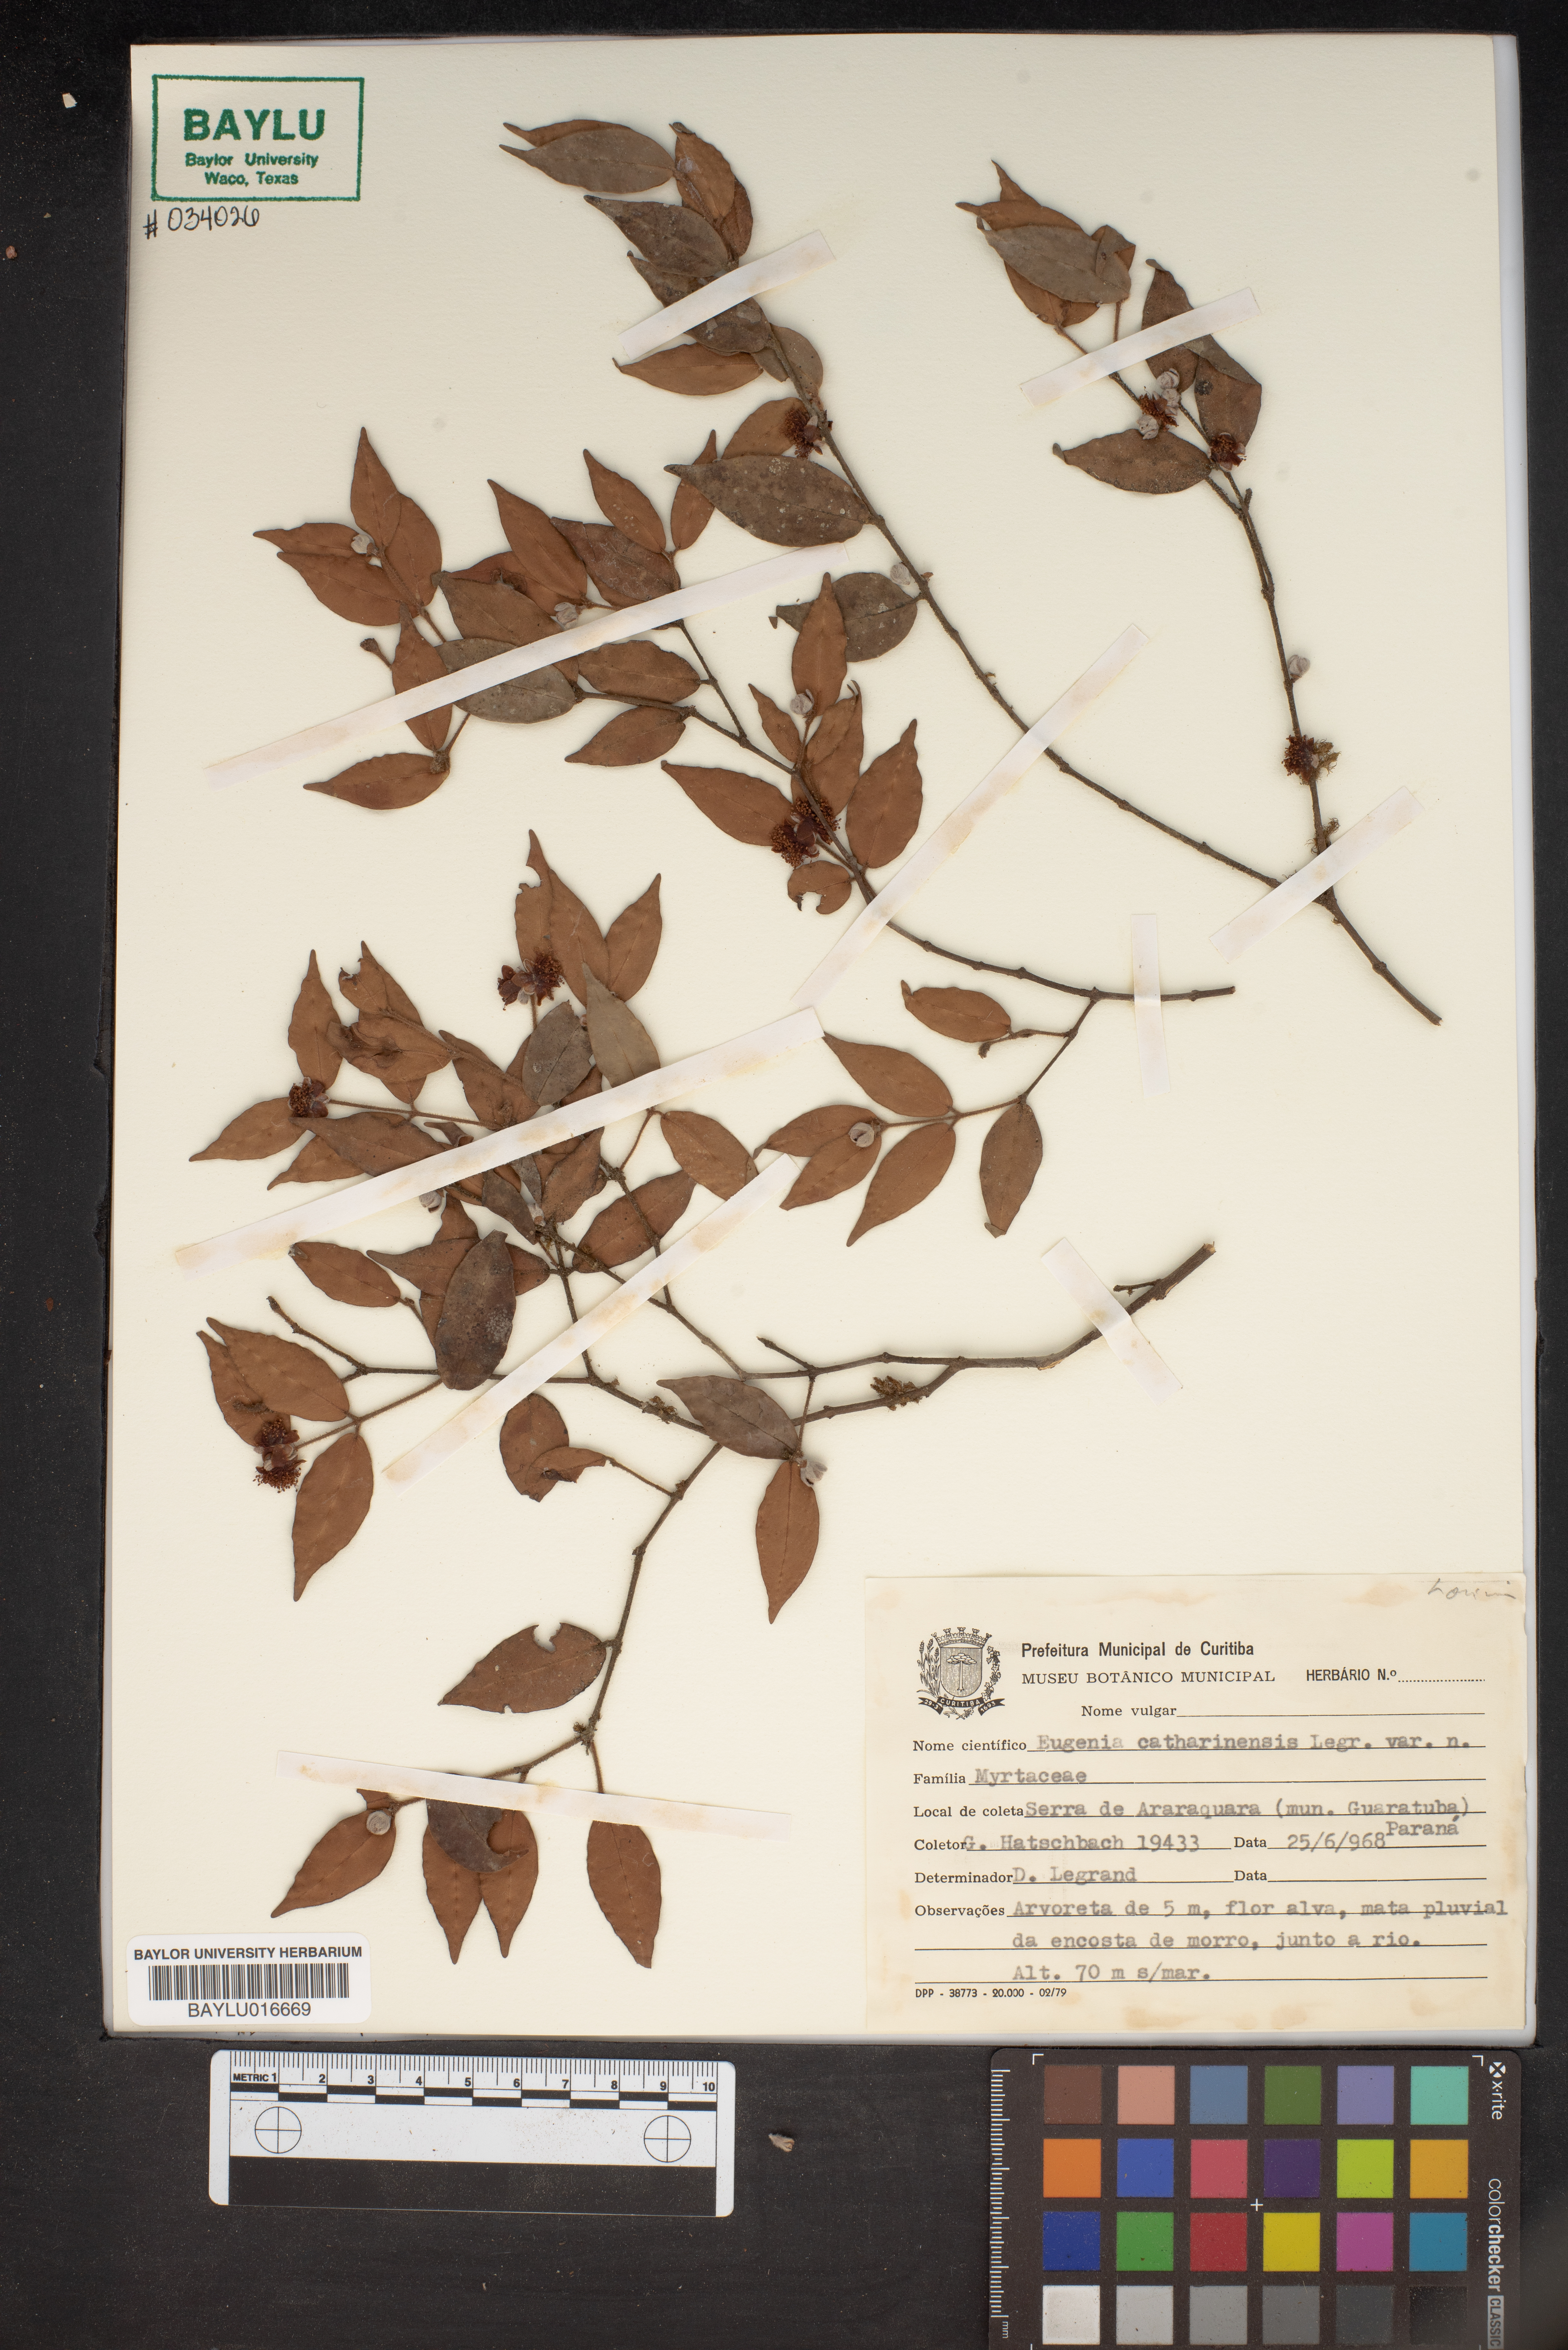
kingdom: Plantae
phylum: Tracheophyta
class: Magnoliopsida
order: Myrtales
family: Myrtaceae
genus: Eugenia
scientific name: Eugenia catharinae
